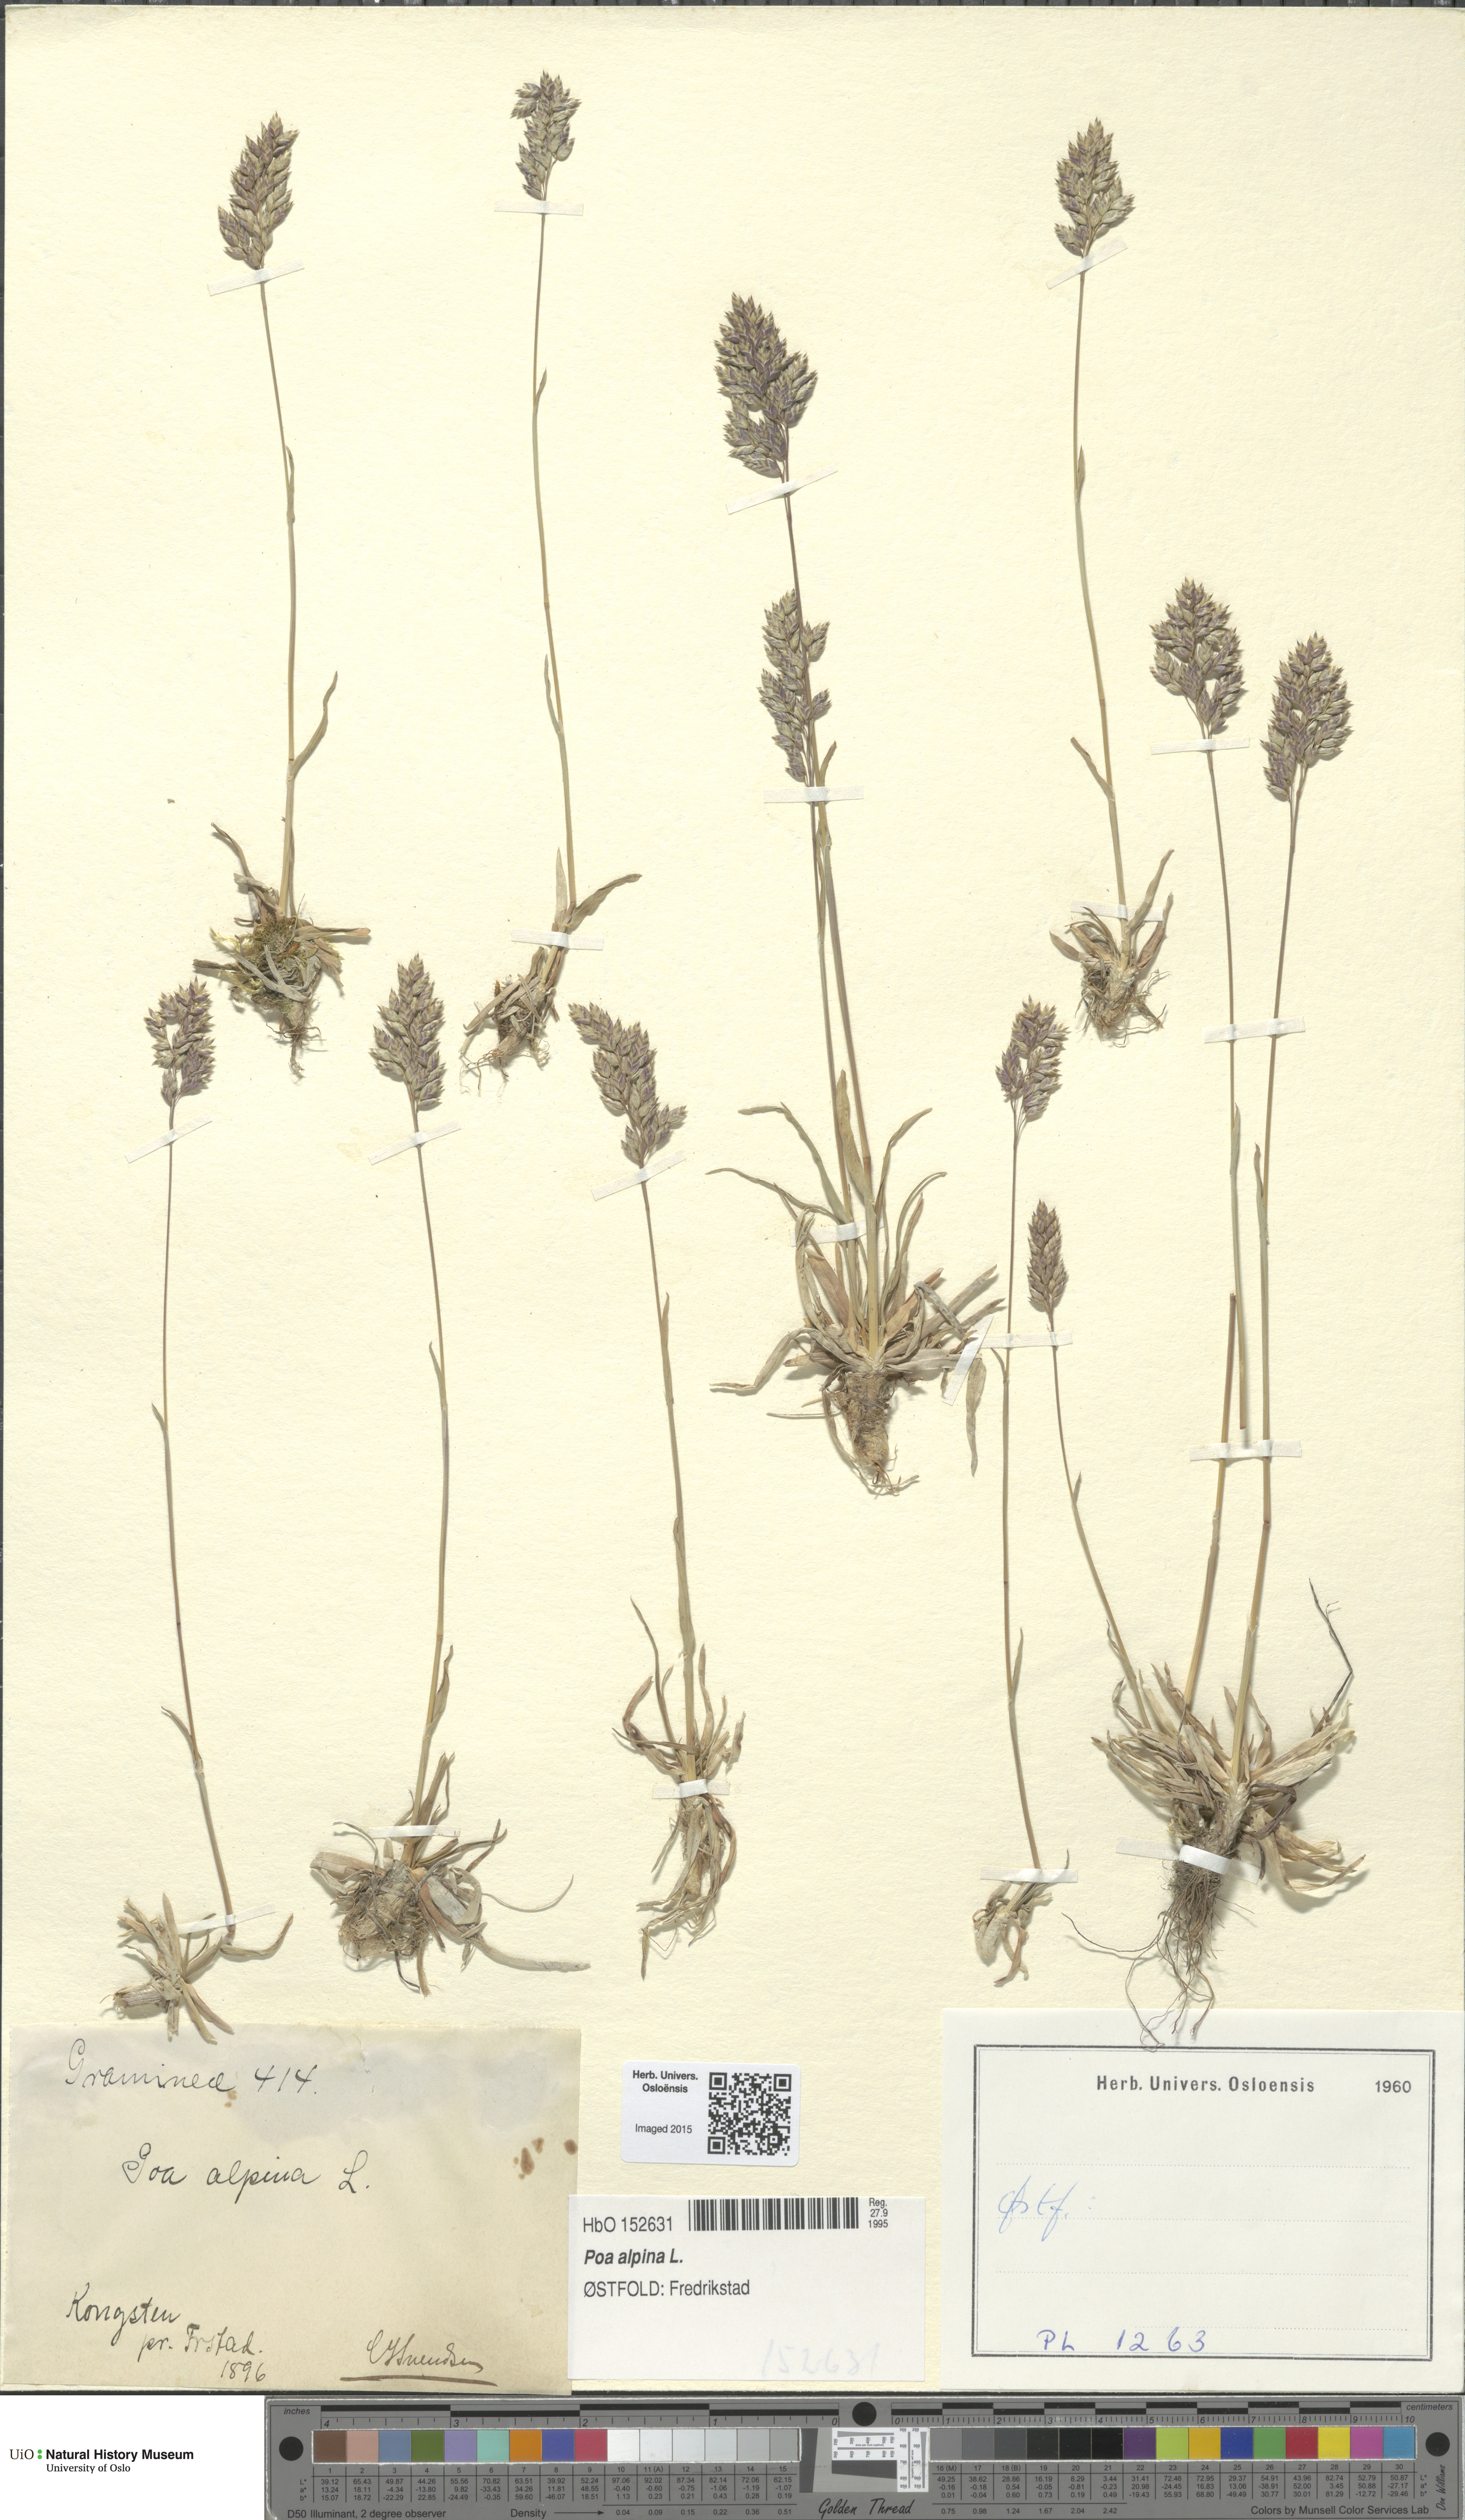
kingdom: Plantae
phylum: Tracheophyta
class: Liliopsida
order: Poales
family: Poaceae
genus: Poa
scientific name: Poa alpina
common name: Alpine bluegrass
